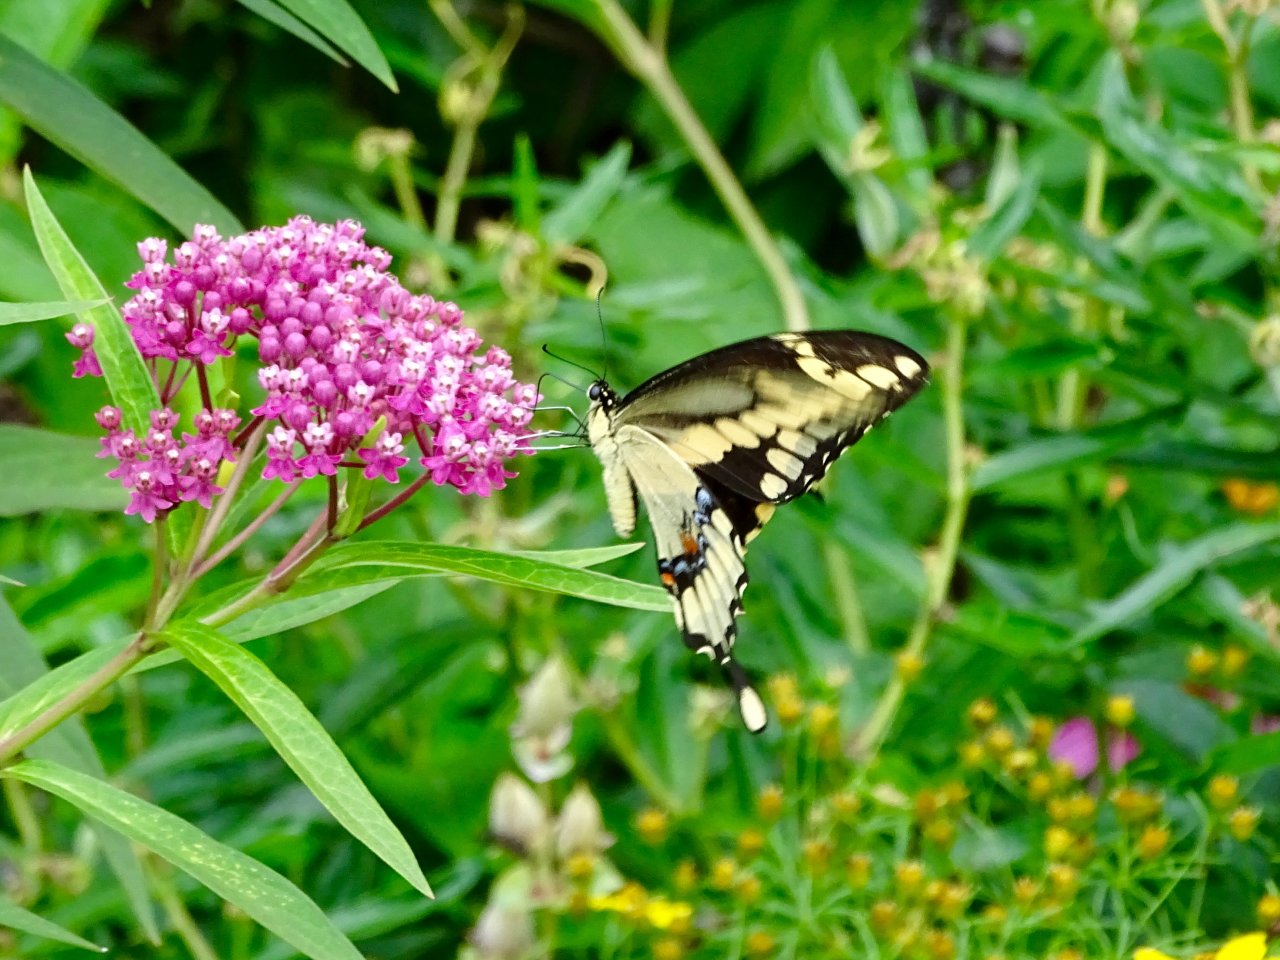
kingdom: Animalia
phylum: Arthropoda
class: Insecta
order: Lepidoptera
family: Papilionidae
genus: Papilio
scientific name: Papilio cresphontes
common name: Eastern Giant Swallowtail
